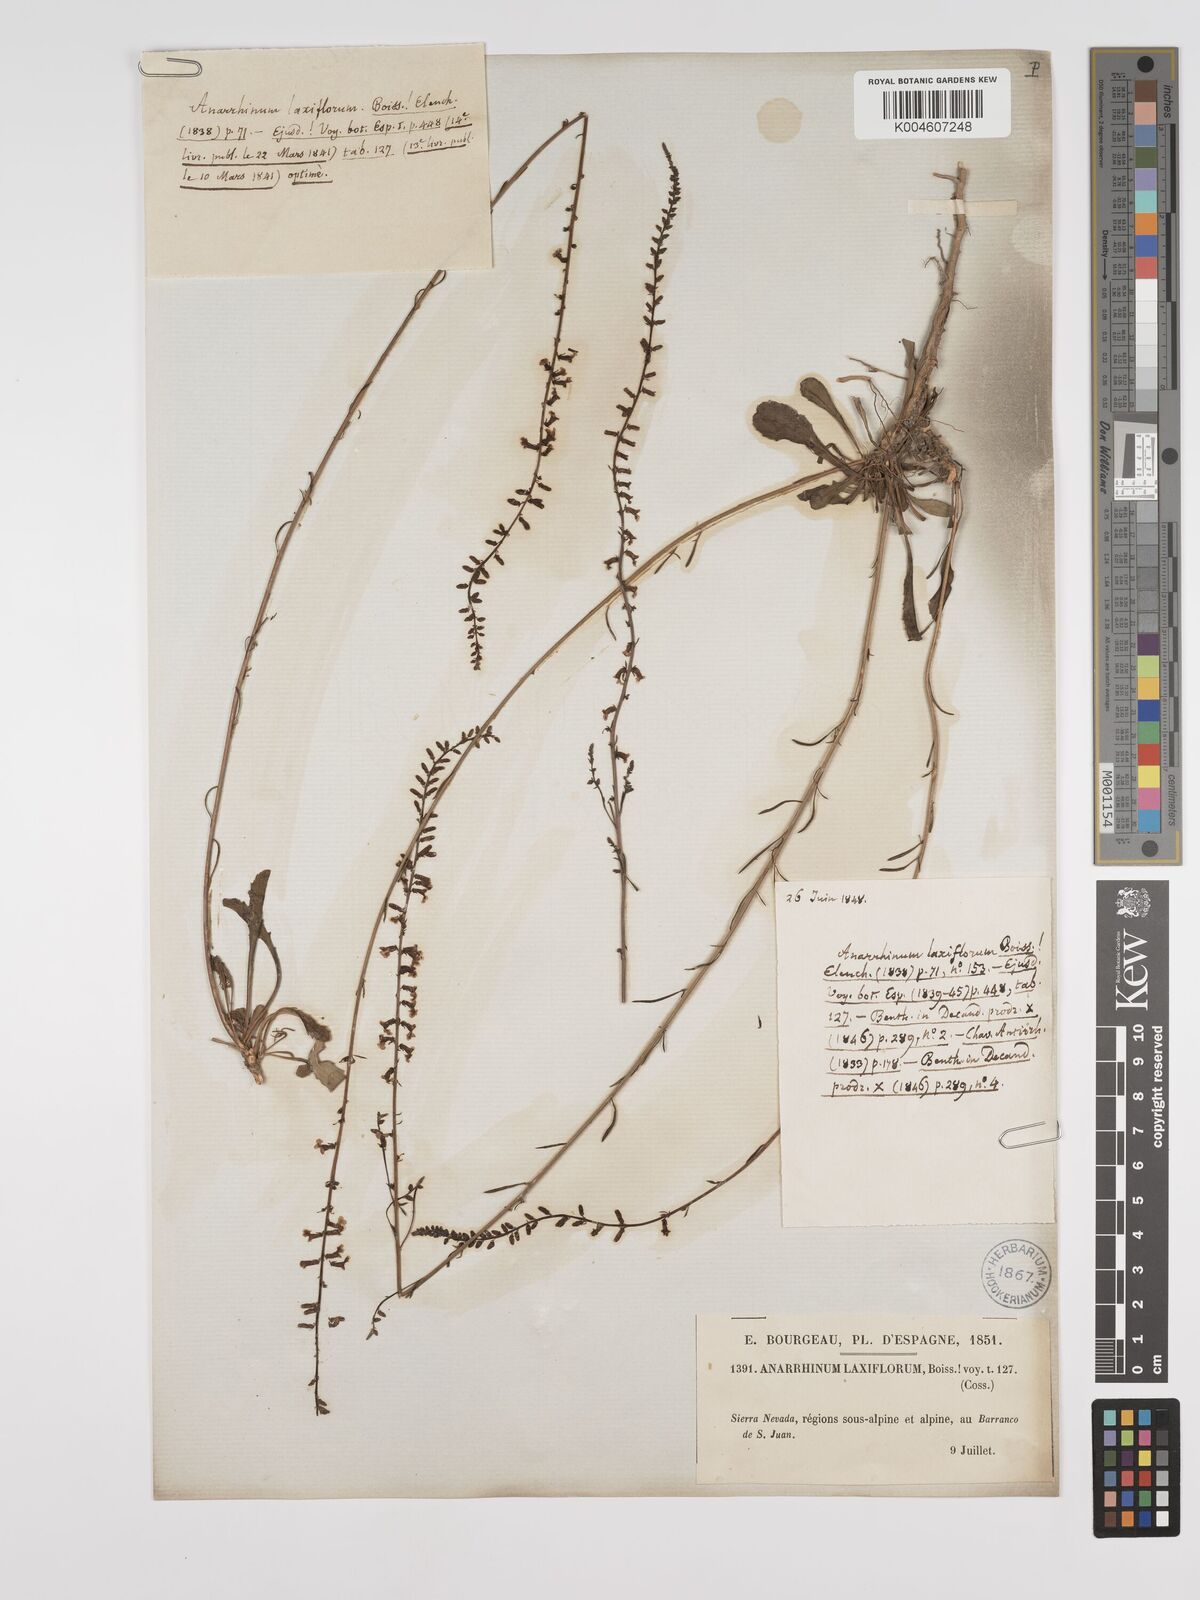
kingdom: Plantae
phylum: Tracheophyta
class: Magnoliopsida
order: Lamiales
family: Plantaginaceae
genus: Anarrhinum
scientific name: Anarrhinum laxiflorum
